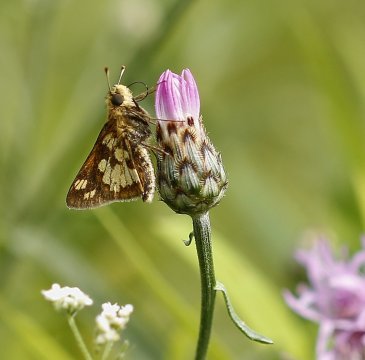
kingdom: Animalia
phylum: Arthropoda
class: Insecta
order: Lepidoptera
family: Hesperiidae
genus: Polites
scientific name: Polites coras
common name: Peck's Skipper
